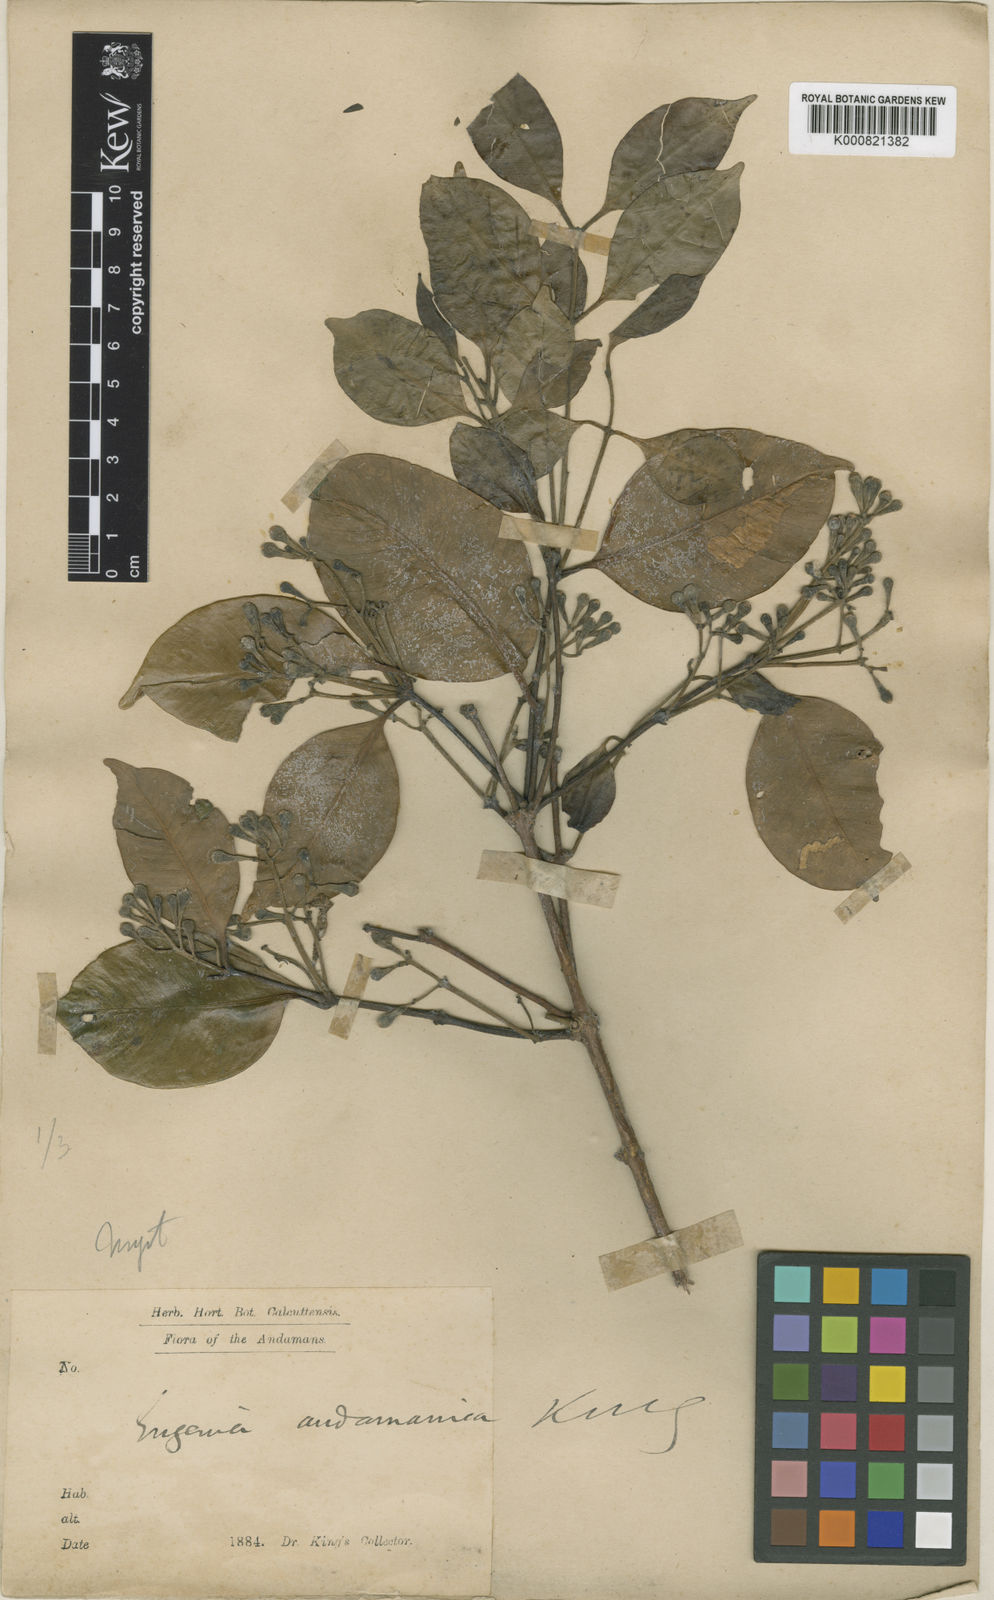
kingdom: Plantae
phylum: Tracheophyta
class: Magnoliopsida
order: Myrtales
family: Myrtaceae
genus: Syzygium
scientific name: Syzygium andamanicum
